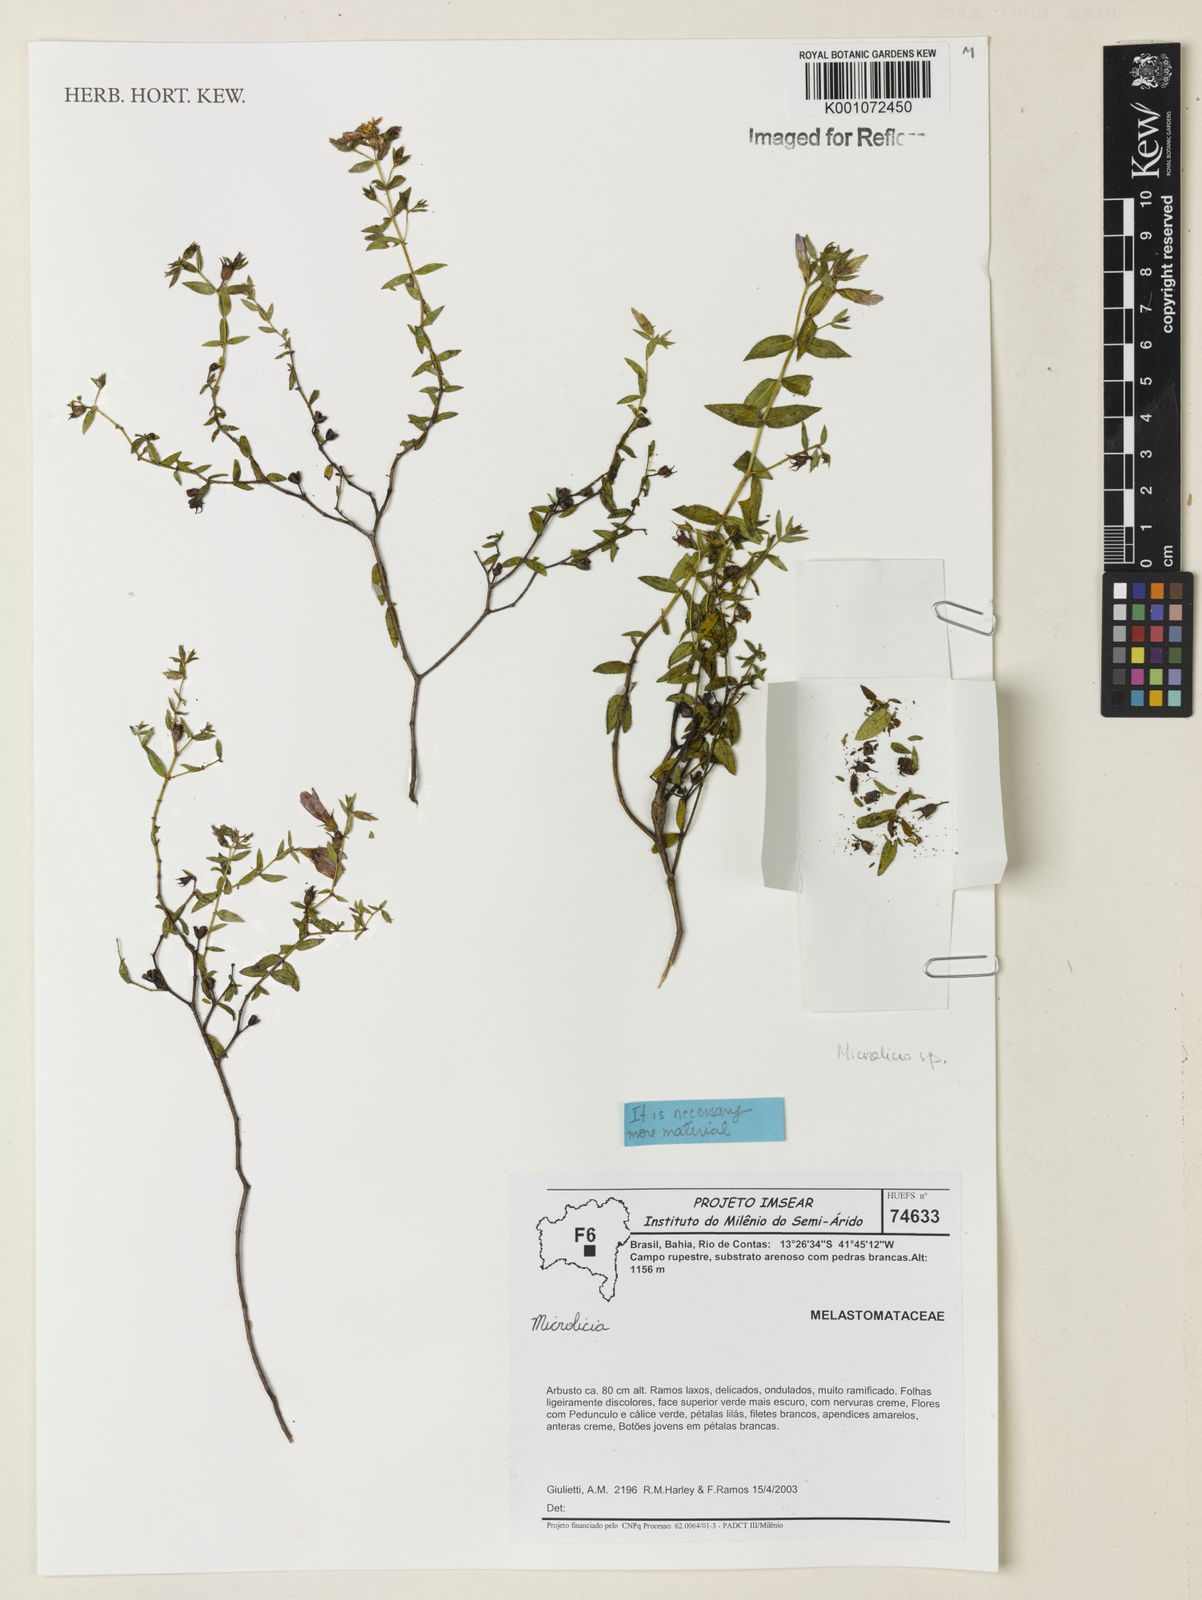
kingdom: Plantae
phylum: Tracheophyta
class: Magnoliopsida
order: Myrtales
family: Melastomataceae
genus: Microlicia
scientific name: Microlicia
